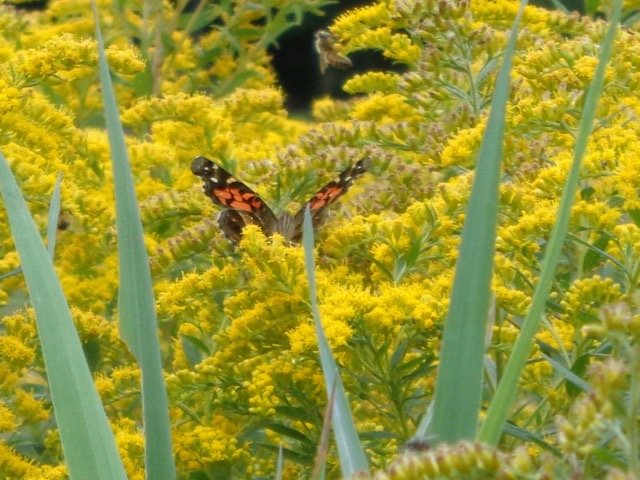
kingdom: Animalia
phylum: Arthropoda
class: Insecta
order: Lepidoptera
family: Nymphalidae
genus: Vanessa
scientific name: Vanessa virginiensis
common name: American Lady
